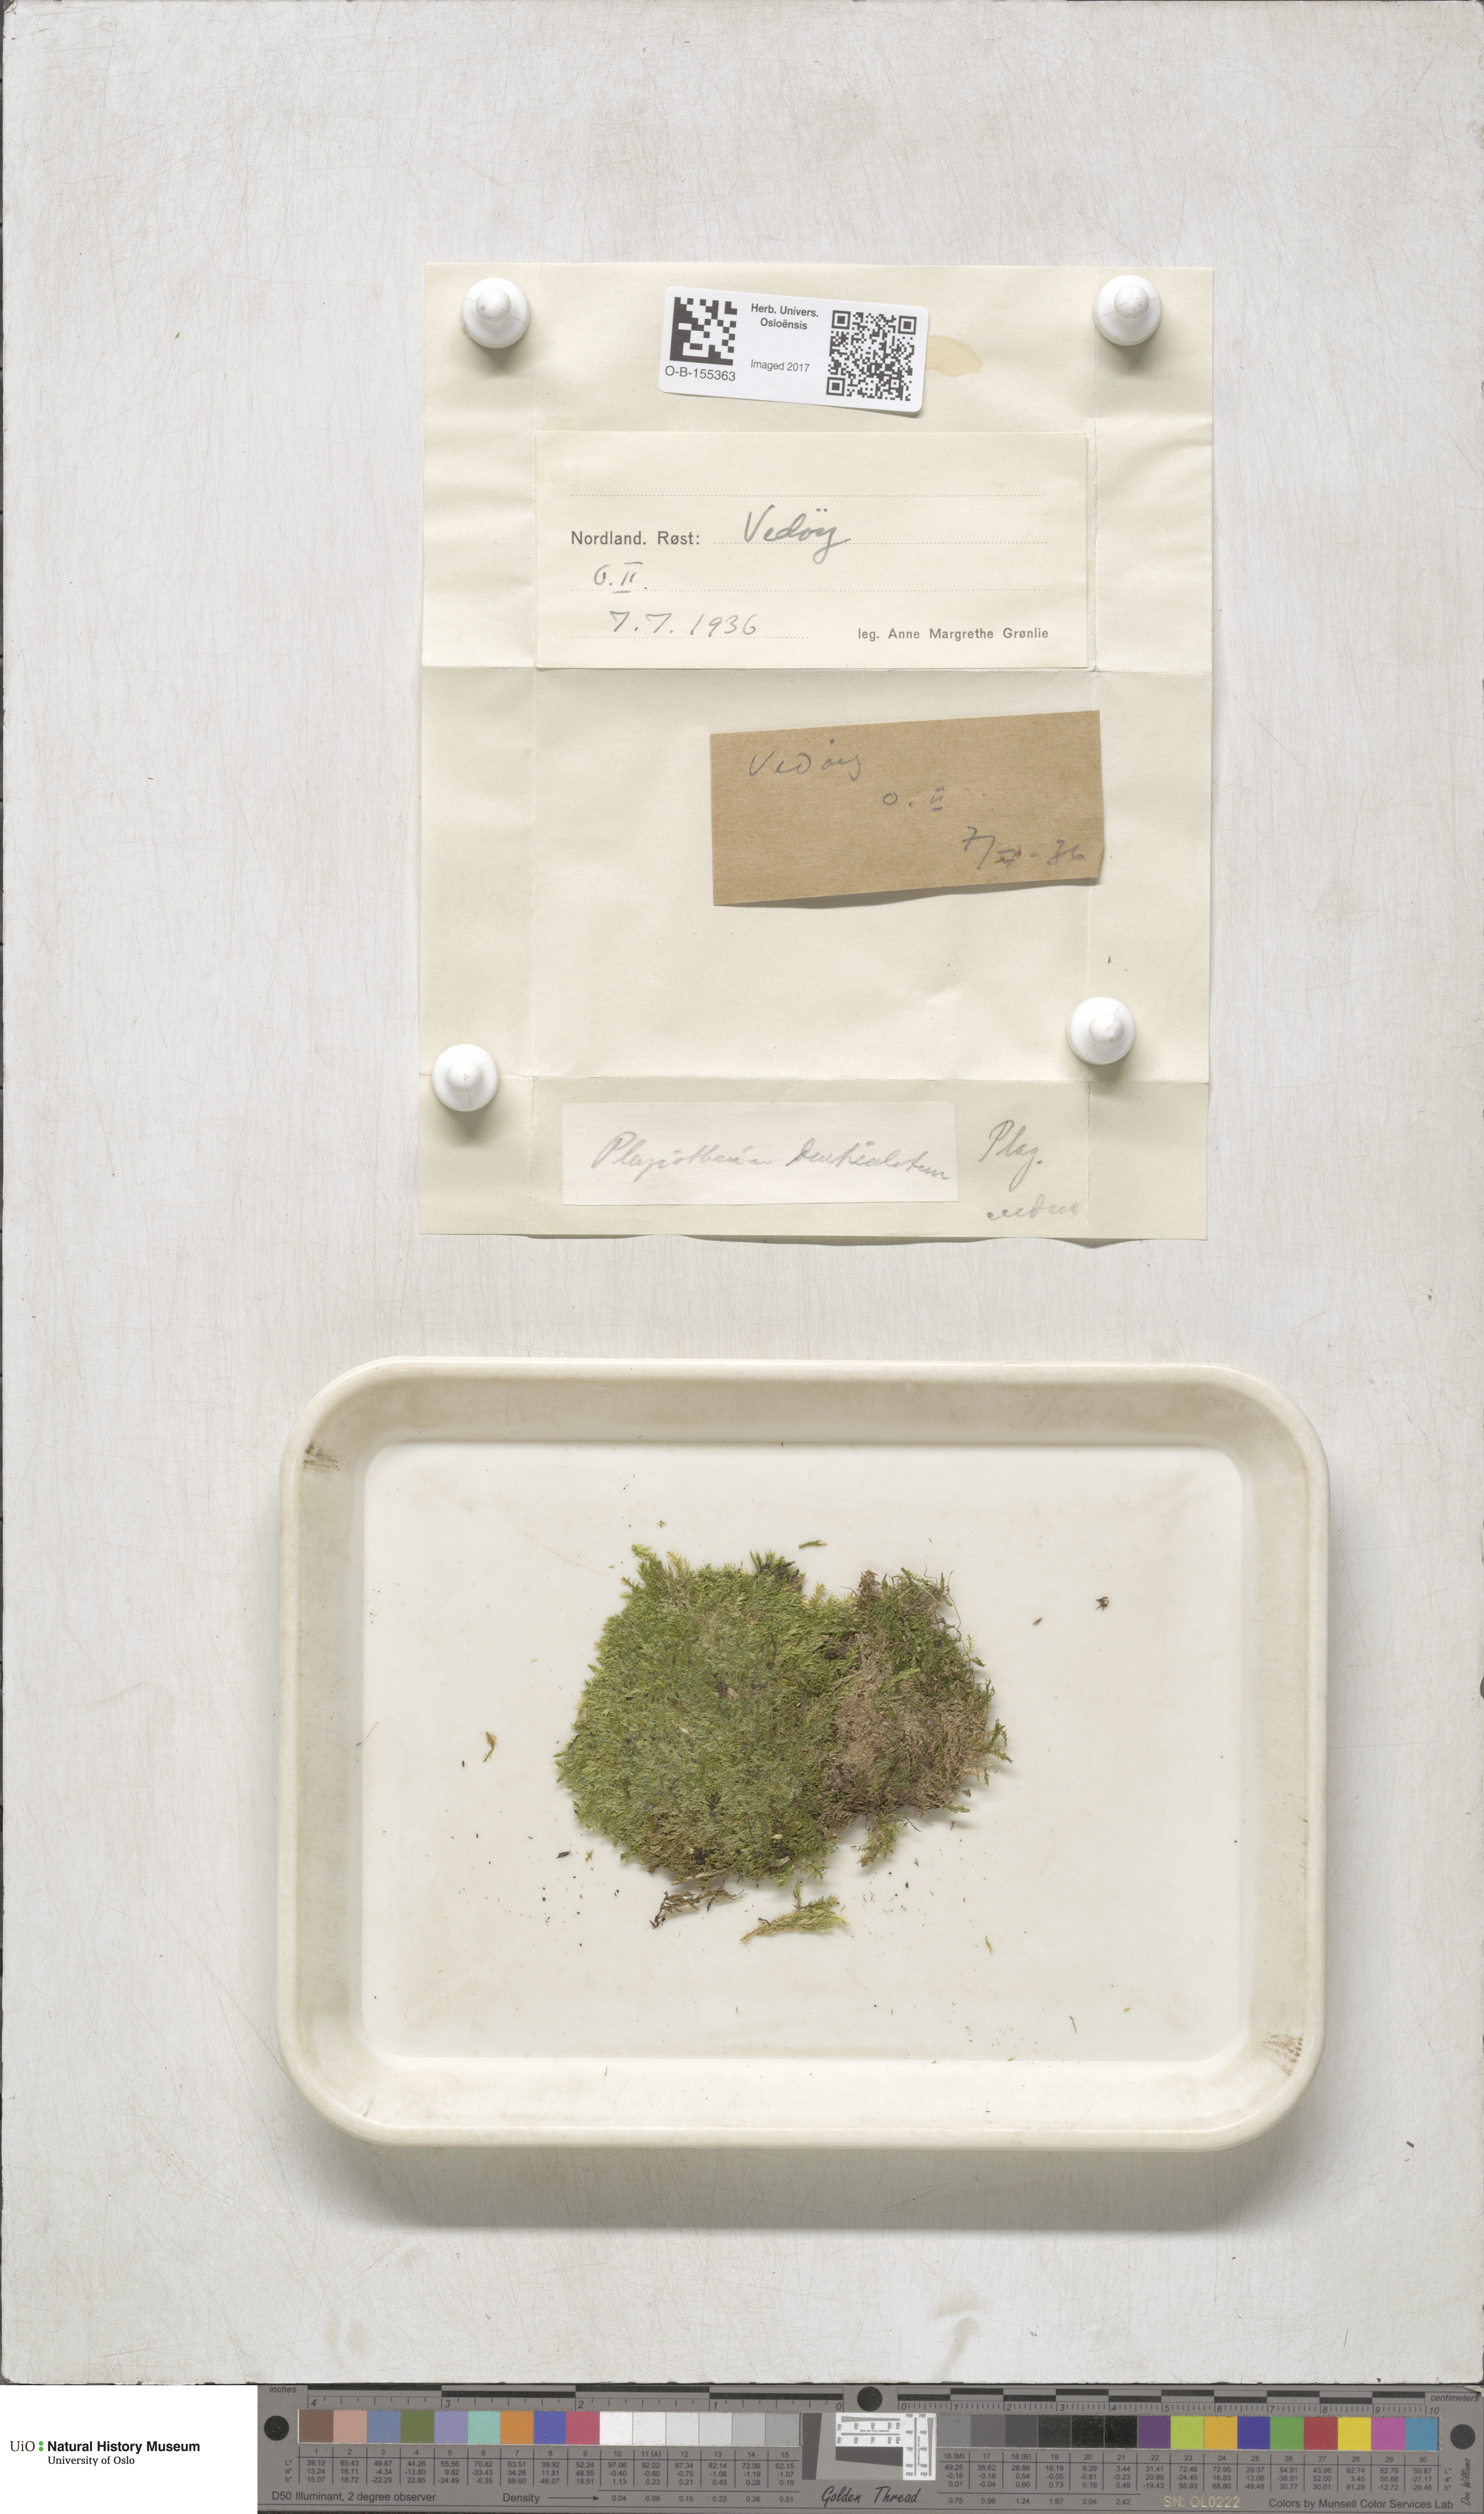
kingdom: Plantae
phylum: Bryophyta
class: Bryopsida
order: Hypnales
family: Plagiotheciaceae
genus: Plagiothecium
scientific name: Plagiothecium denticulatum
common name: Dented silk moss
